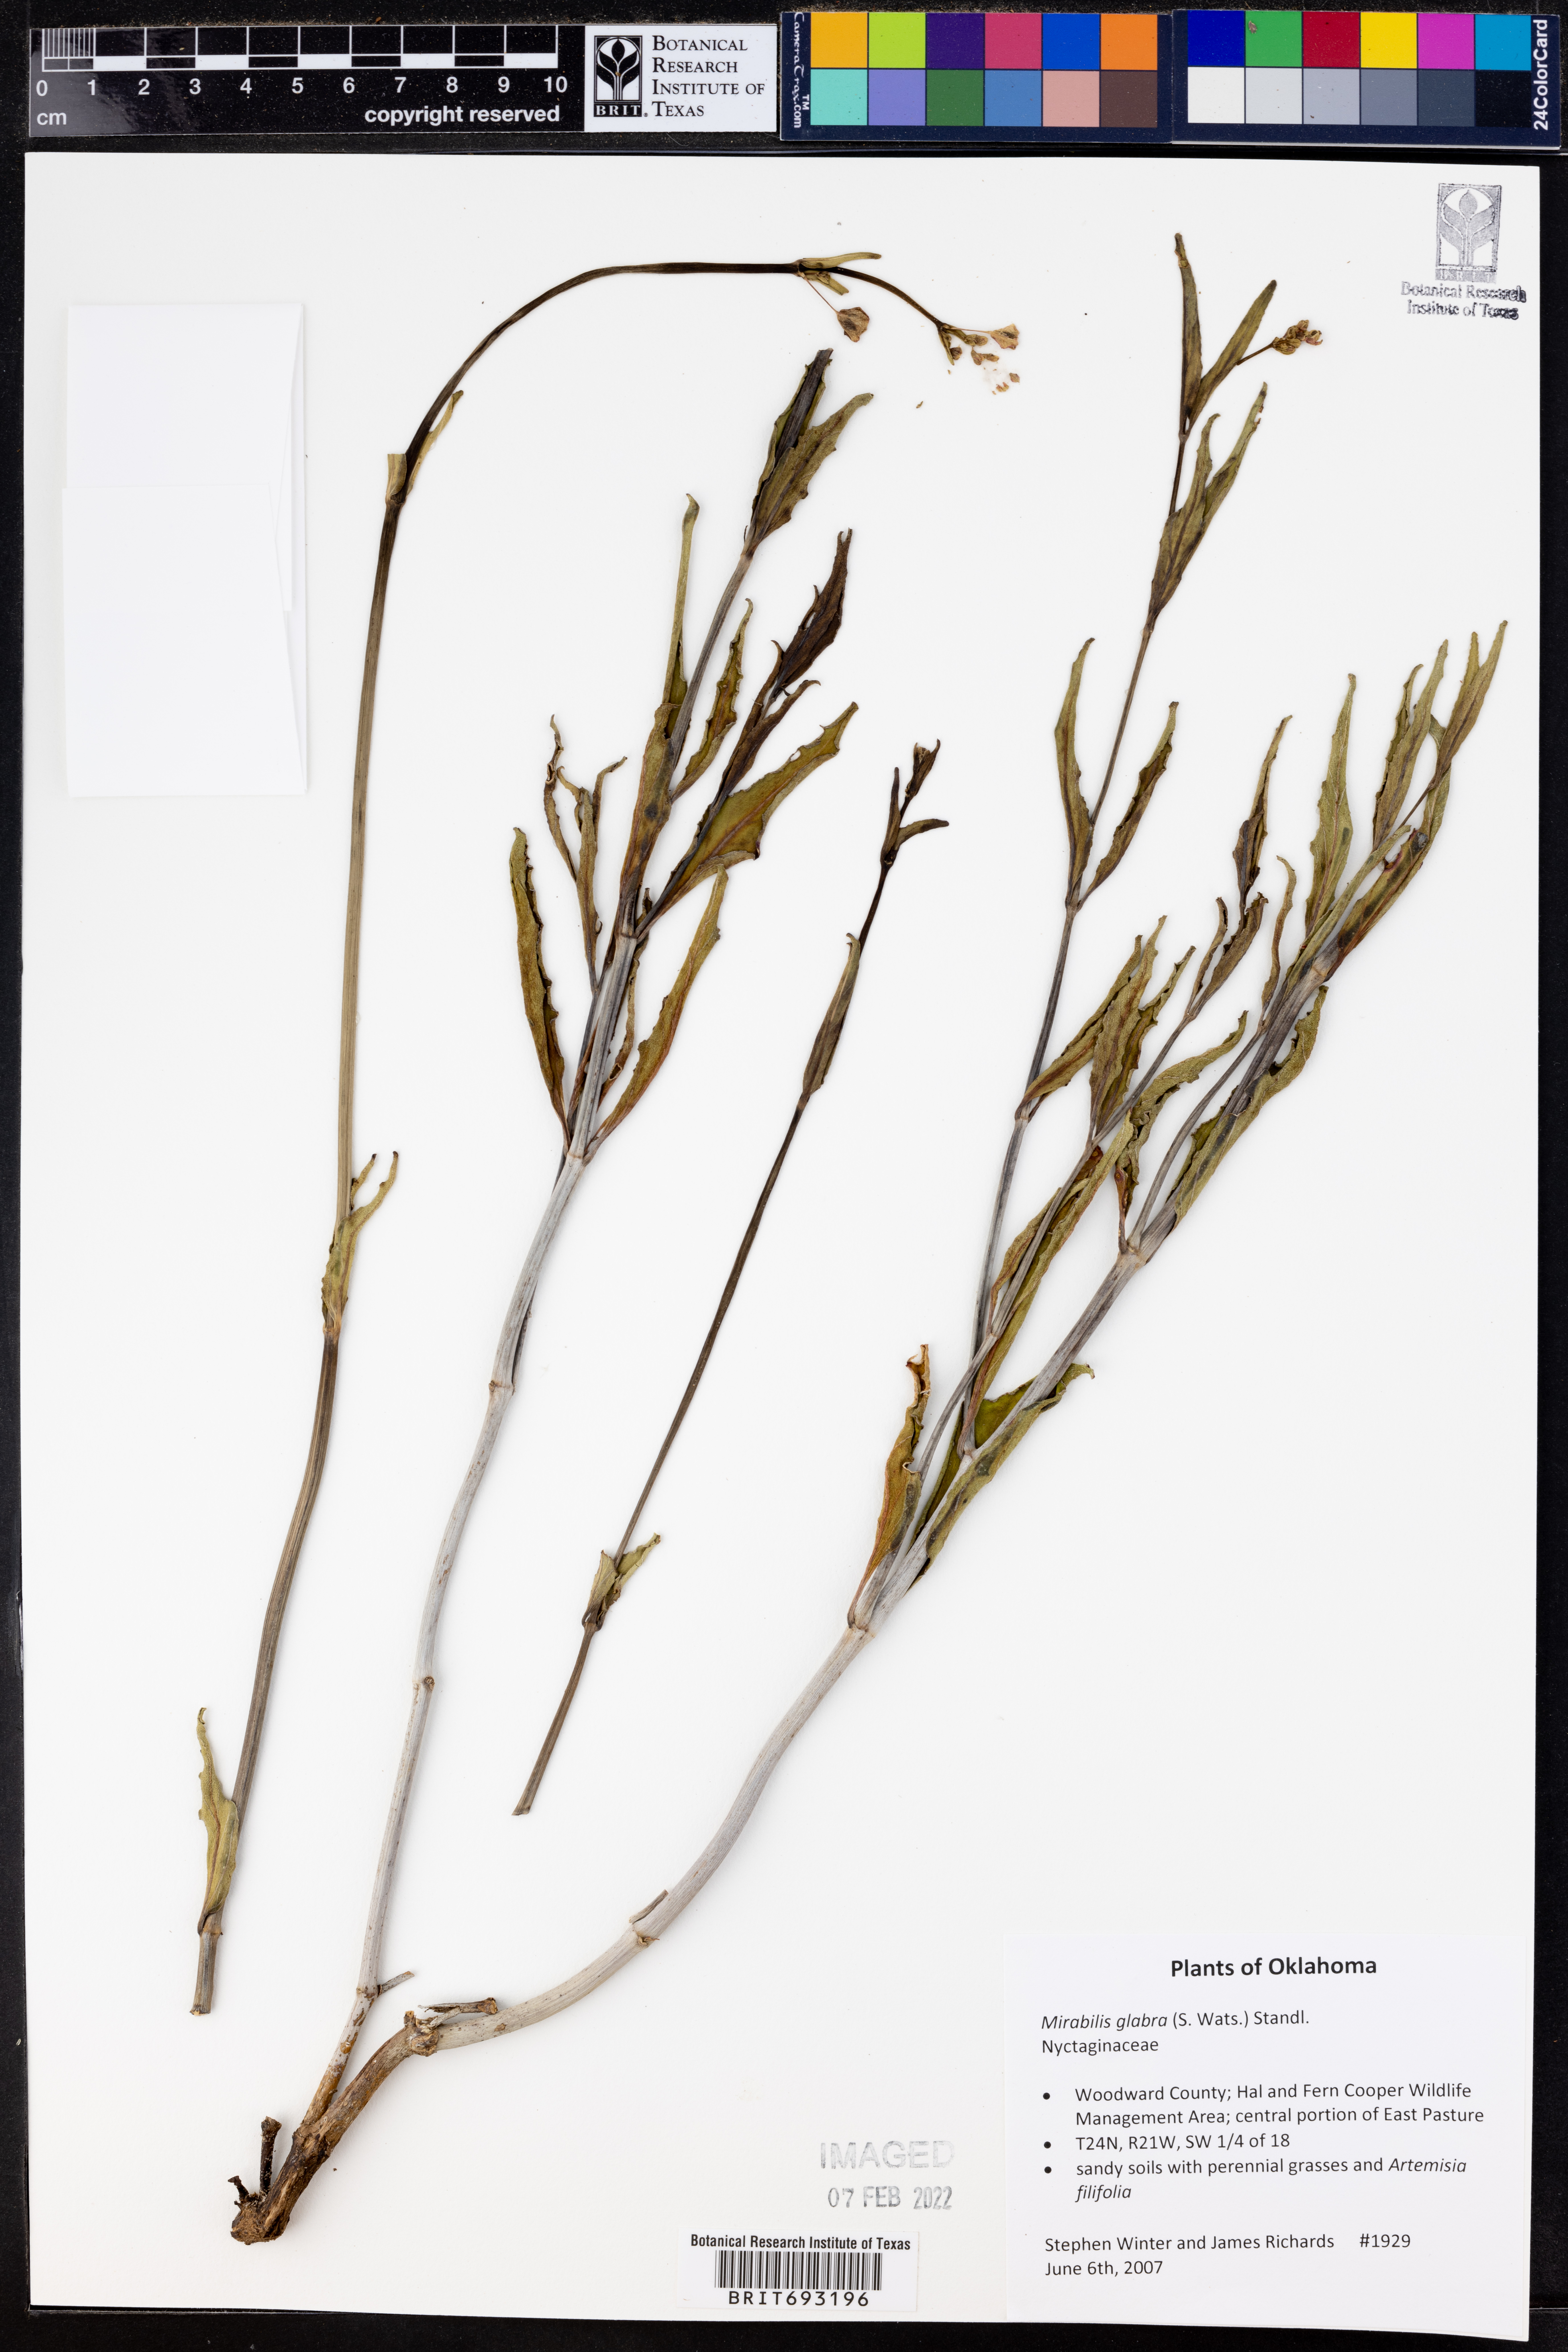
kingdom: Plantae
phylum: Tracheophyta
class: Magnoliopsida
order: Caryophyllales
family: Nyctaginaceae
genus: Mirabilis
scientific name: Mirabilis glabra
